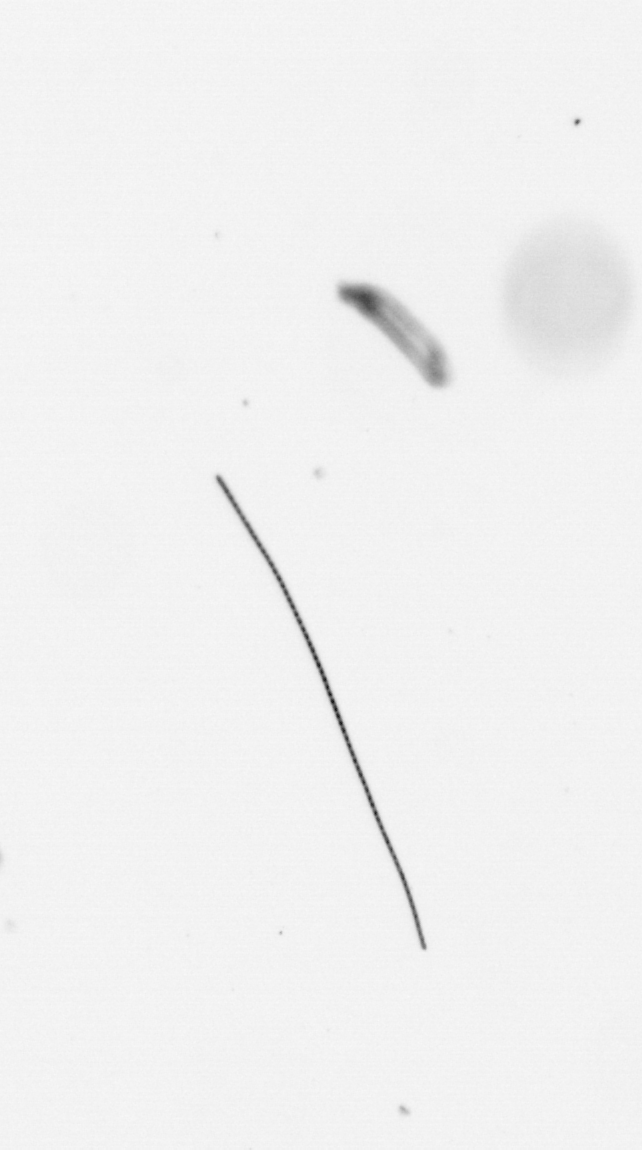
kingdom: Chromista
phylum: Ochrophyta
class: Bacillariophyceae
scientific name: Bacillariophyceae
